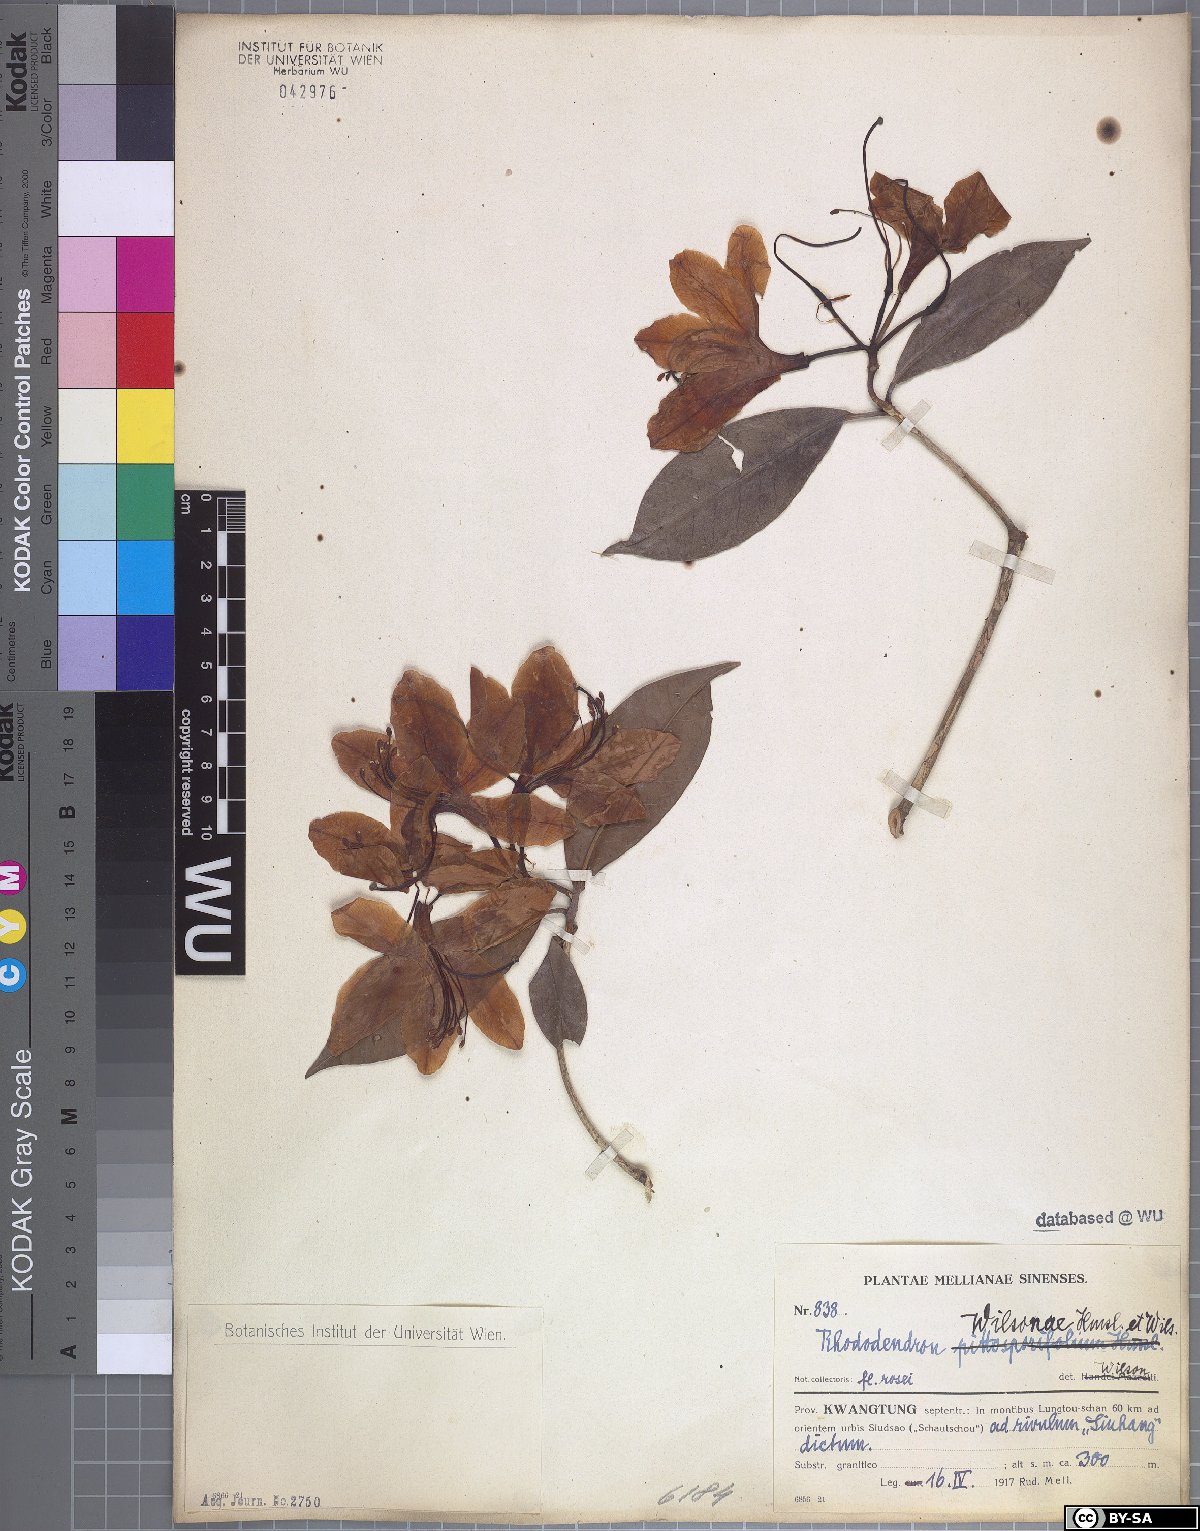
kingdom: Plantae
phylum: Tracheophyta
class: Magnoliopsida
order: Ericales
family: Ericaceae
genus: Rhododendron
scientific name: Rhododendron latoucheae
